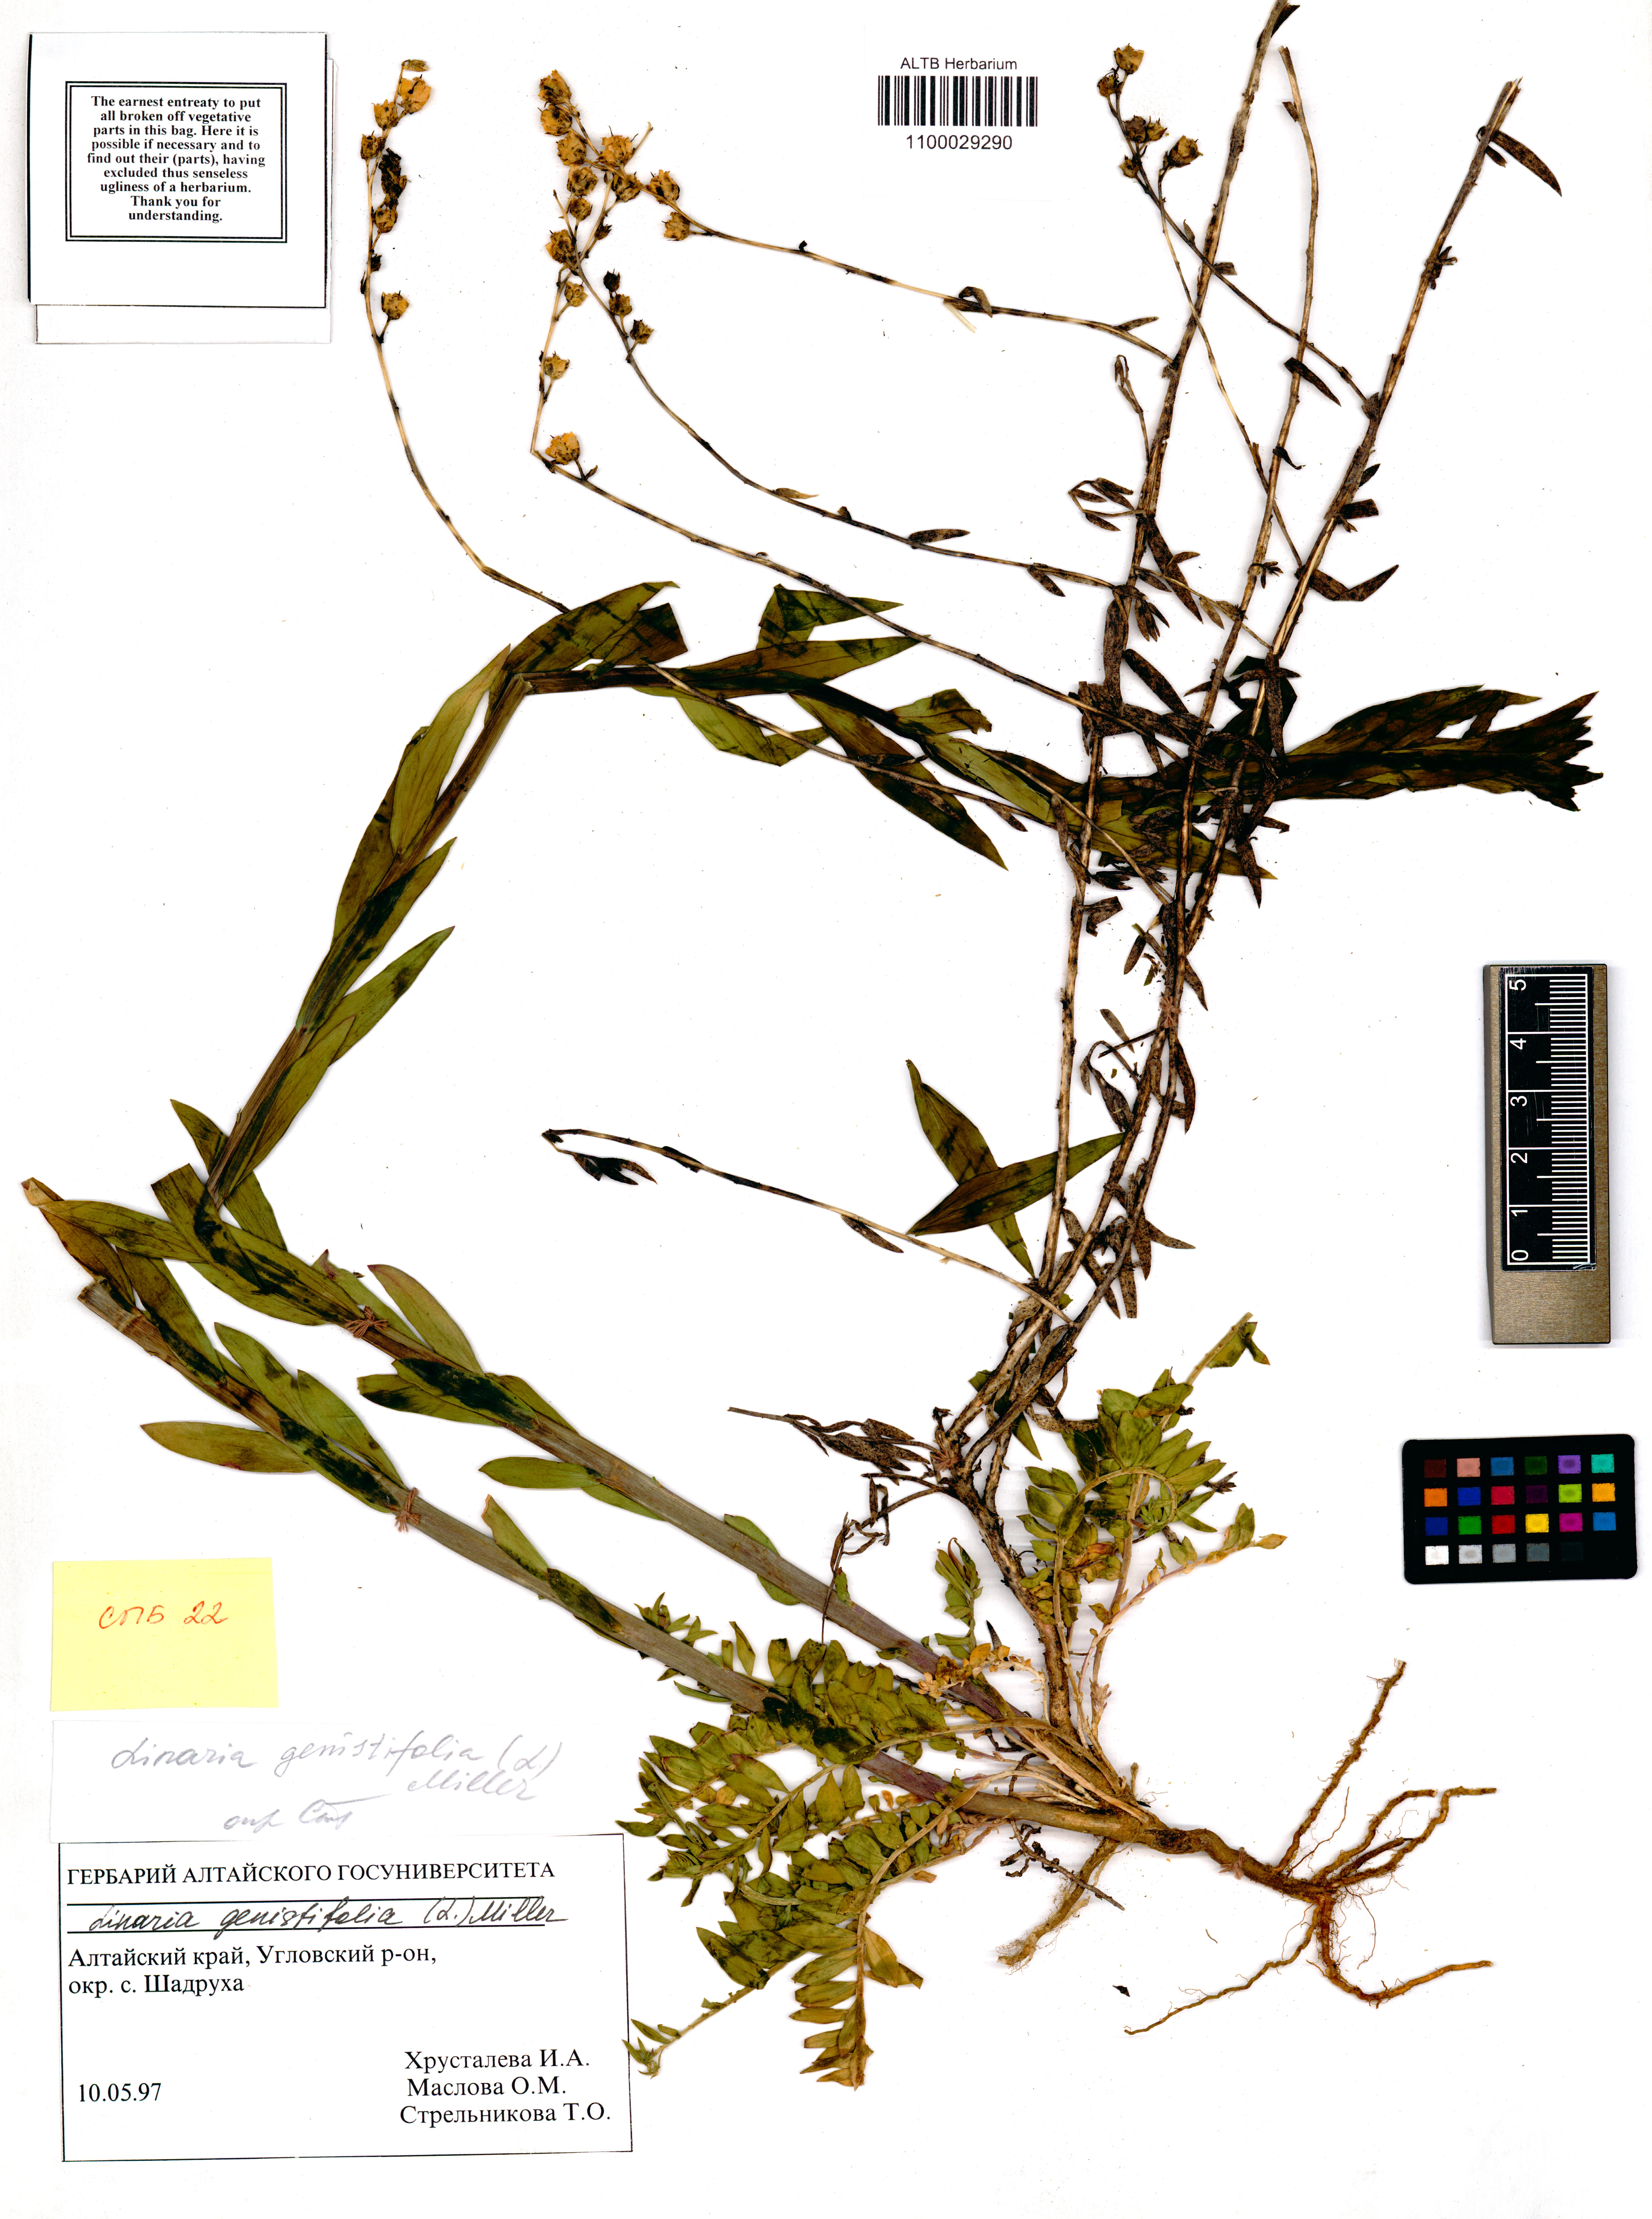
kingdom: Plantae
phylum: Tracheophyta
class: Magnoliopsida
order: Lamiales
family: Plantaginaceae
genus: Linaria
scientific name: Linaria genistifolia
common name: Broomleaf toadflax
